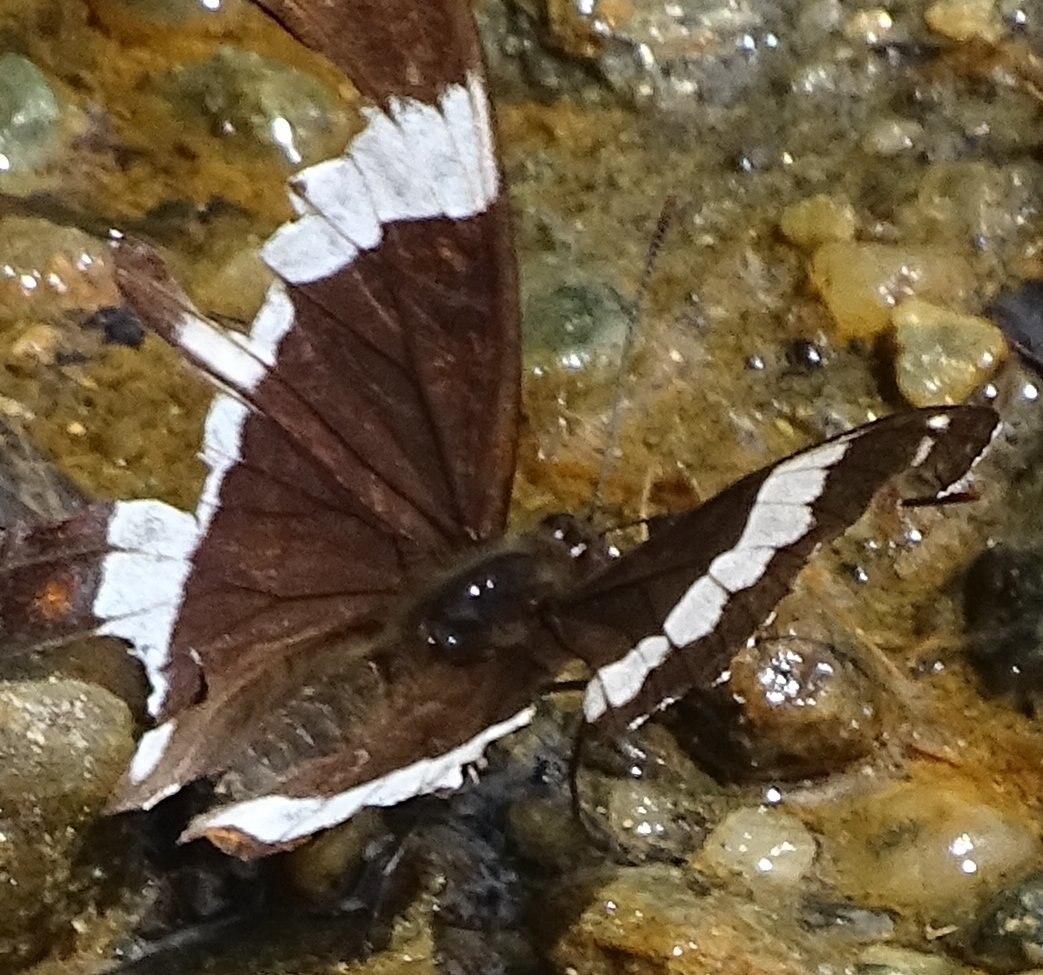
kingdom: Animalia
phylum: Arthropoda
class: Insecta
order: Lepidoptera
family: Nymphalidae
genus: Limenitis
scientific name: Limenitis arthemis
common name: Red-spotted Admiral
